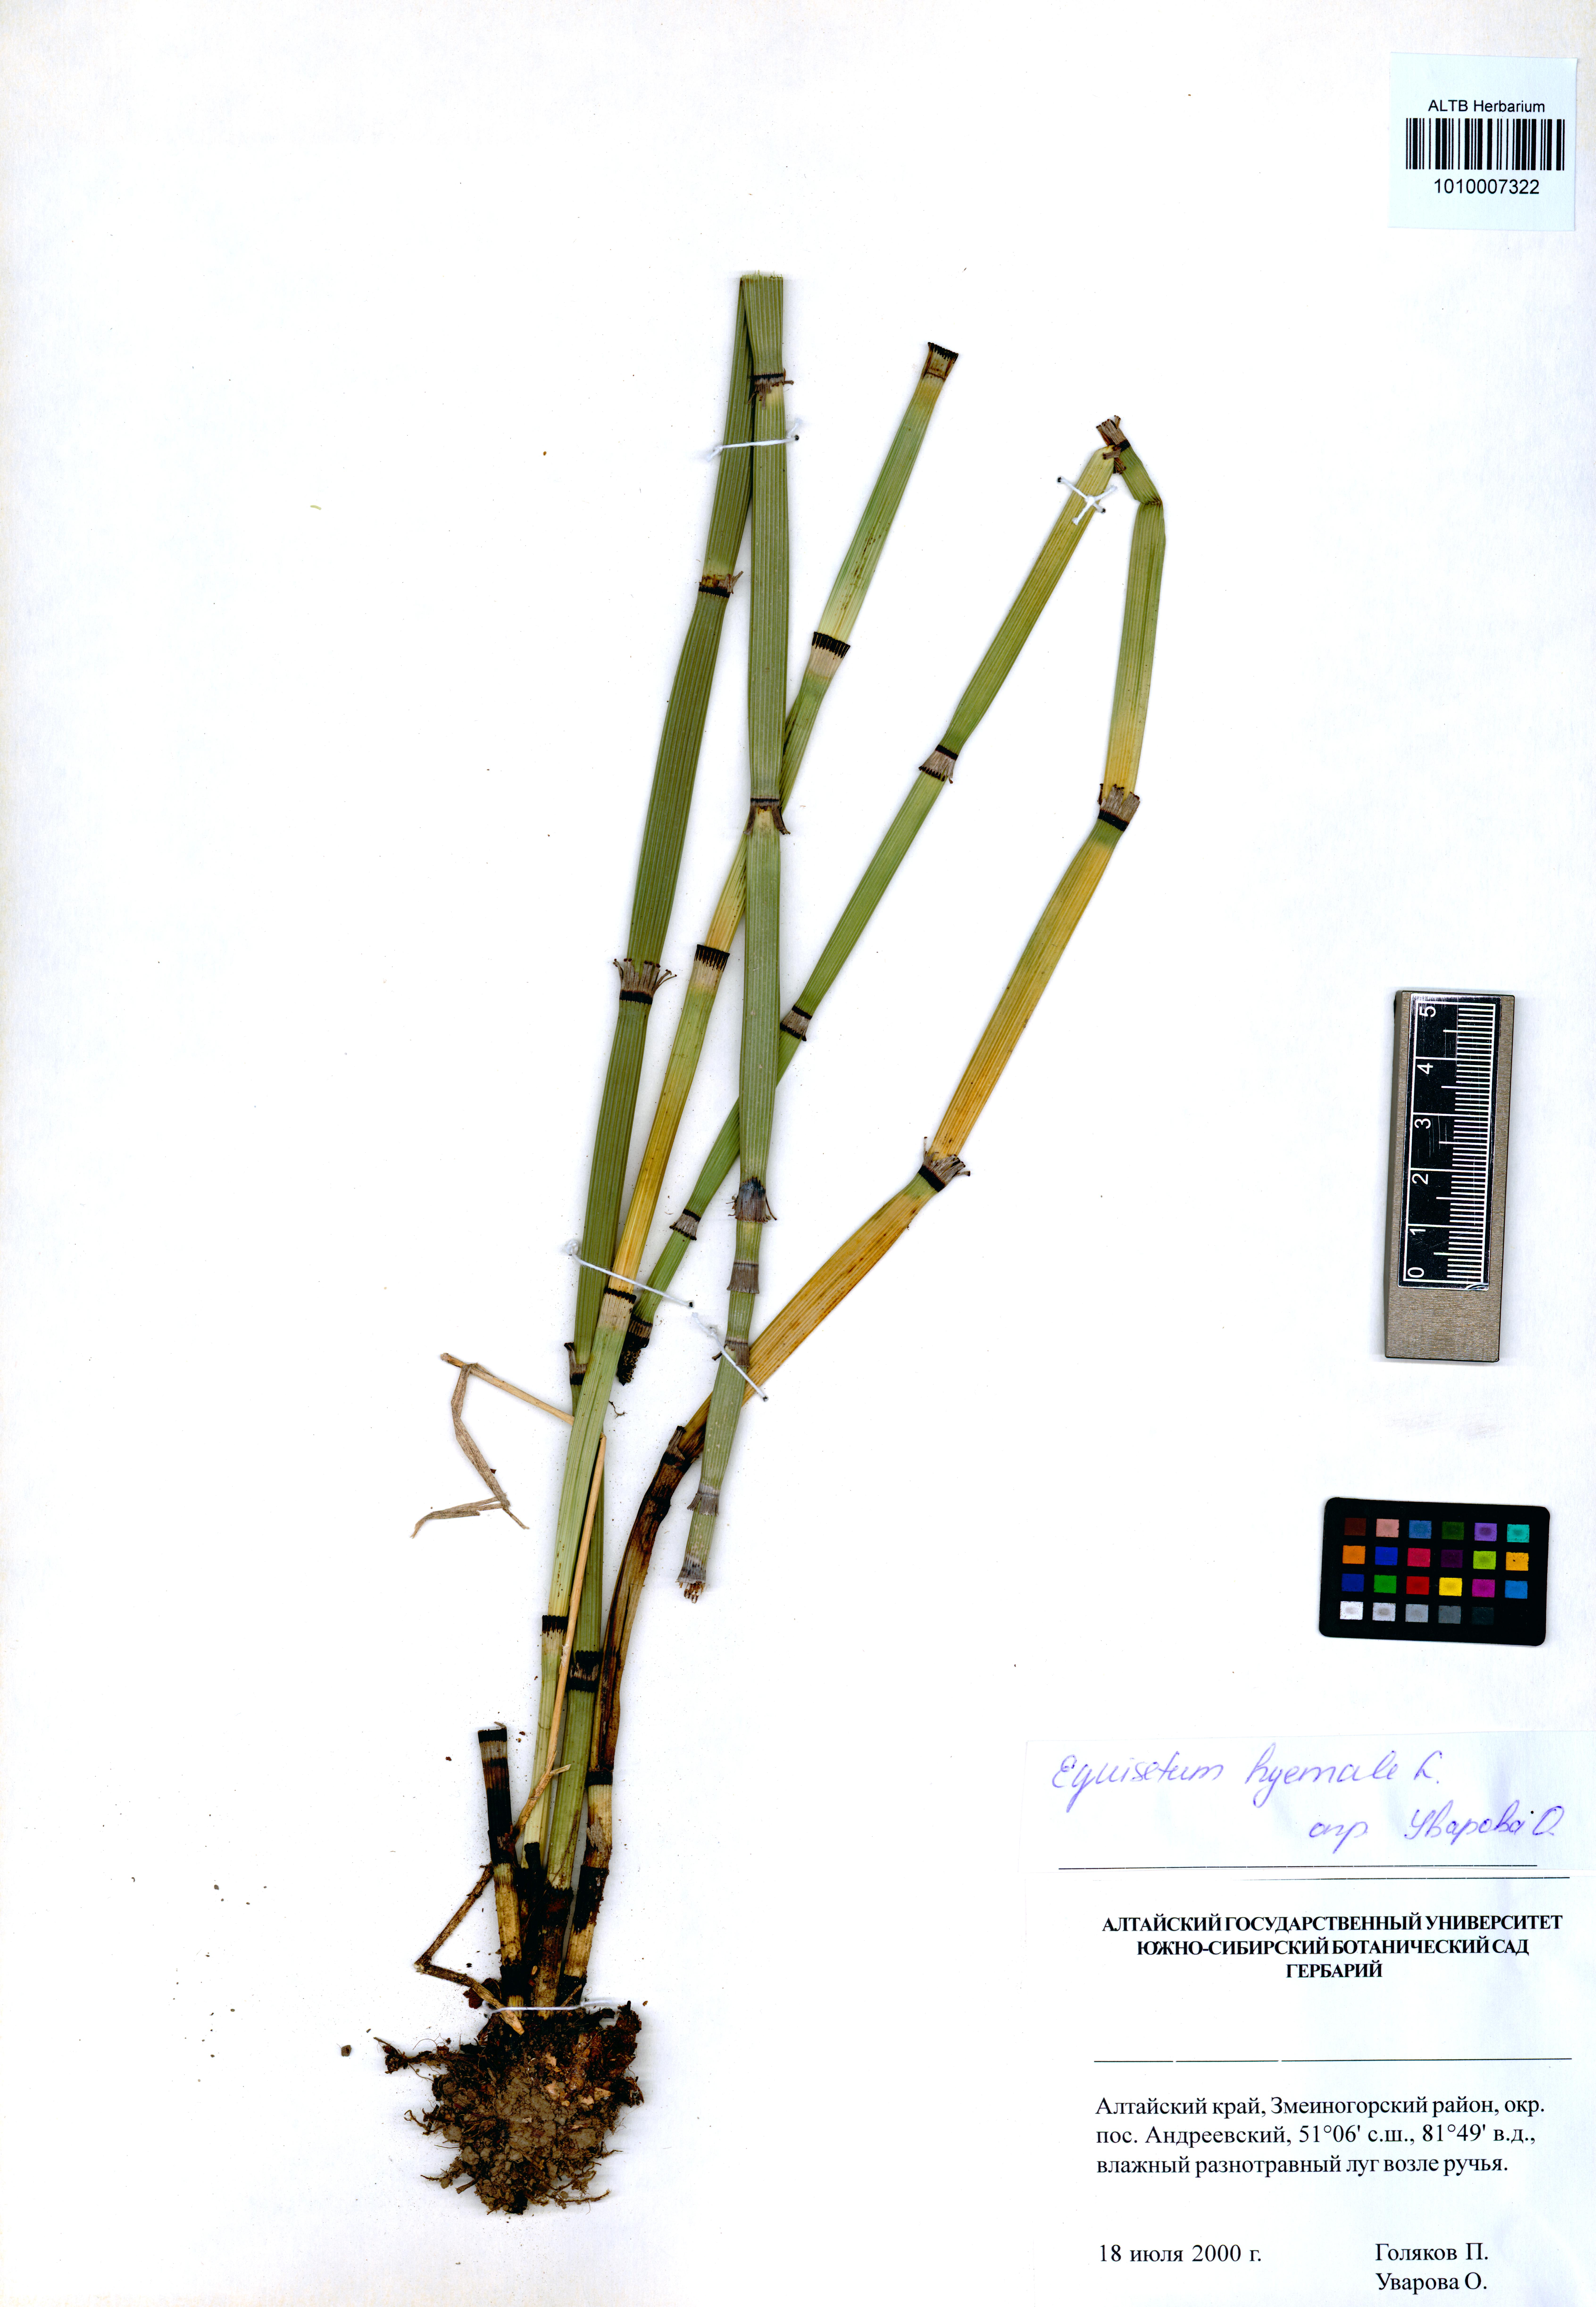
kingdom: Plantae
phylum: Tracheophyta
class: Polypodiopsida
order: Equisetales
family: Equisetaceae
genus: Equisetum
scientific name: Equisetum hyemale
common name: Rough horsetail
